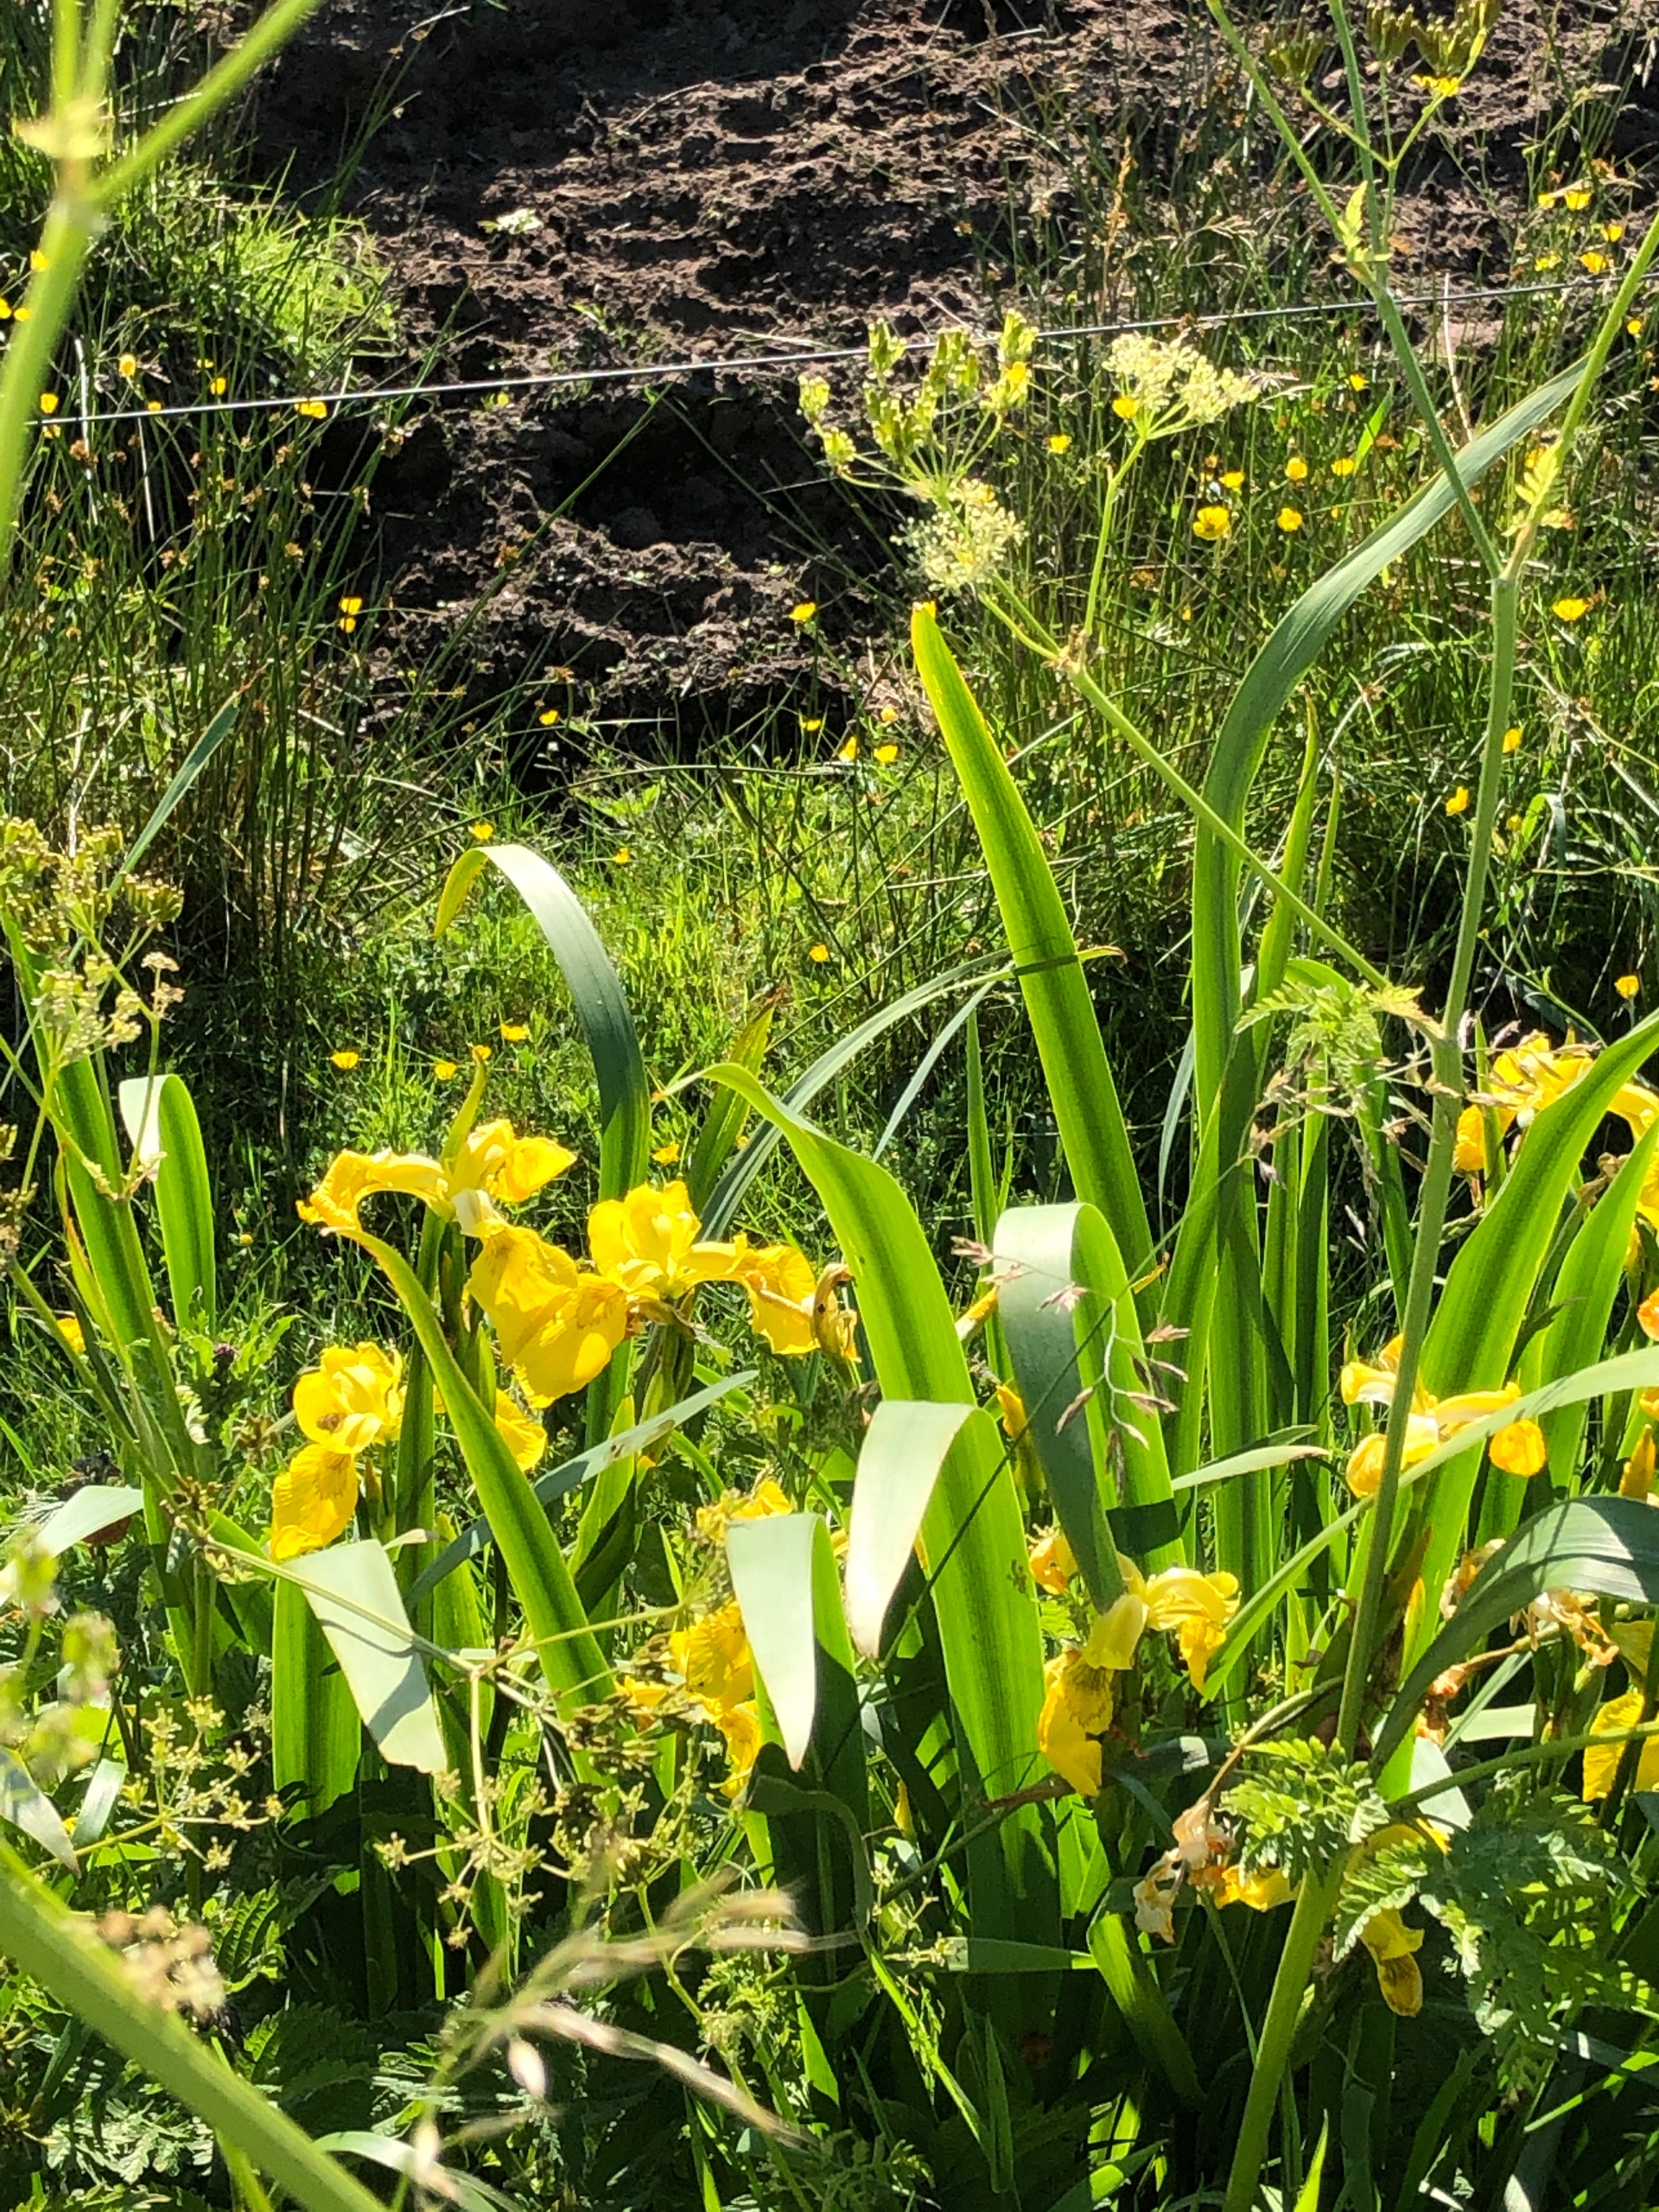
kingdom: Plantae
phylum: Tracheophyta
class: Liliopsida
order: Asparagales
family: Iridaceae
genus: Iris
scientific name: Iris pseudacorus
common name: Gul iris
